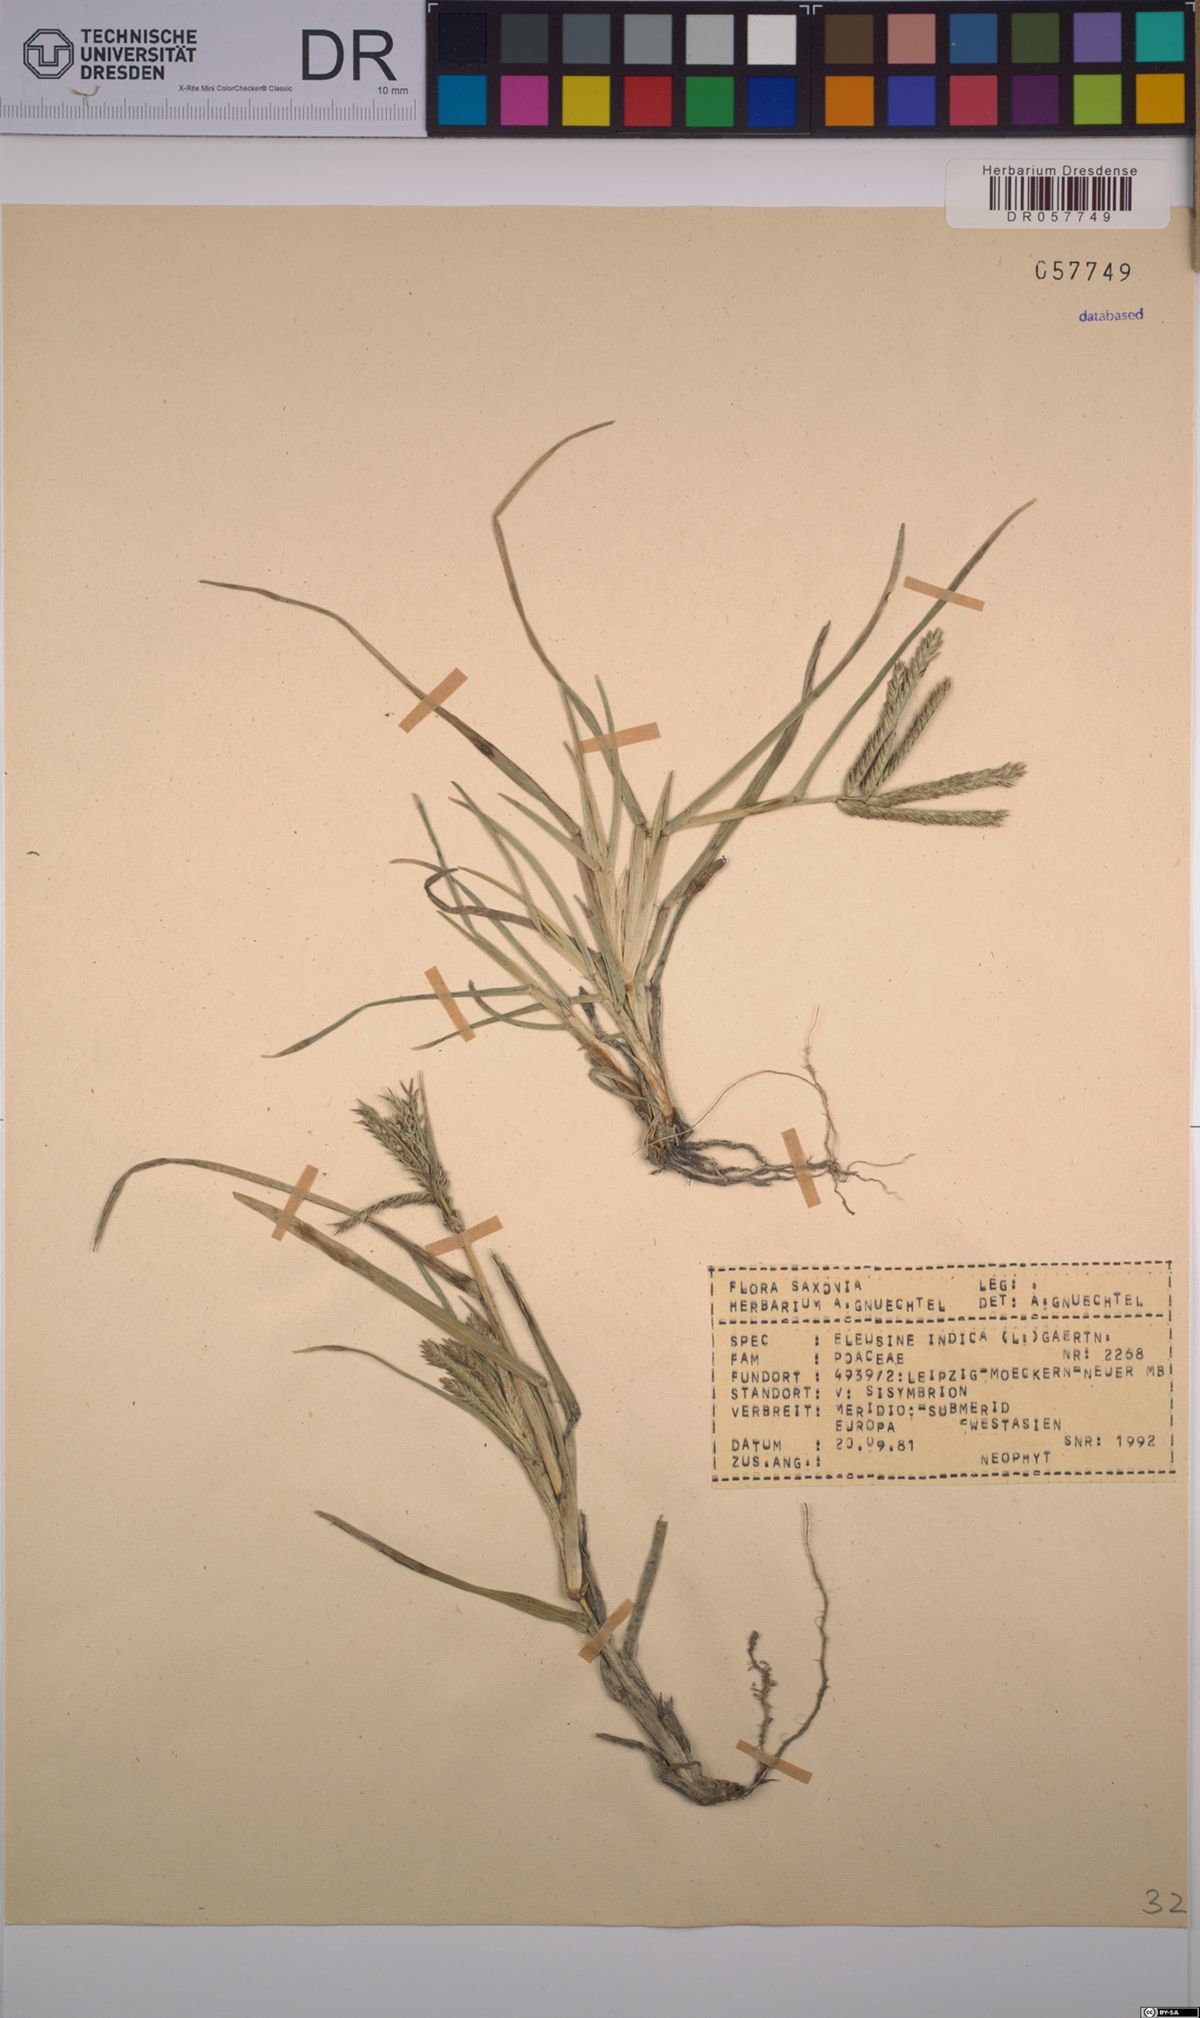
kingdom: Plantae
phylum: Tracheophyta
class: Liliopsida
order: Poales
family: Poaceae
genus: Eleusine
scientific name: Eleusine indica
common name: Yard-grass
